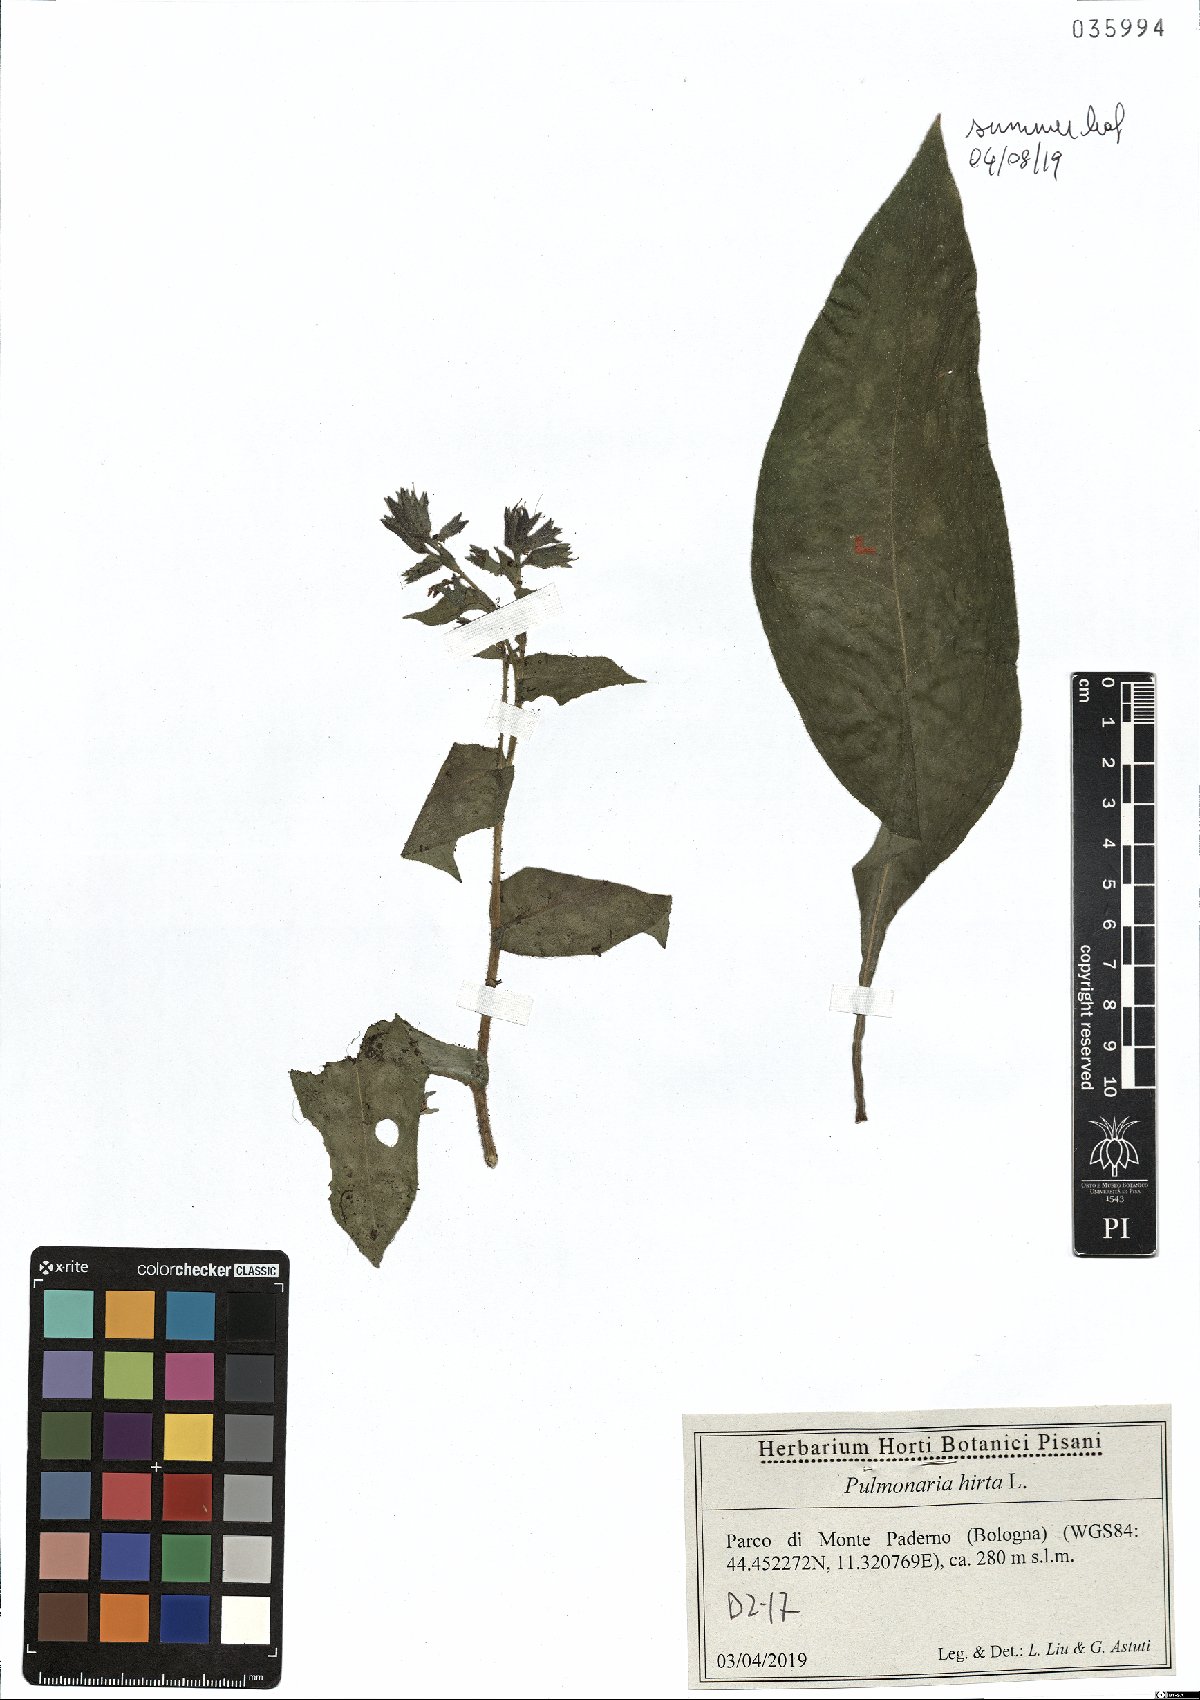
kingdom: Plantae
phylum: Tracheophyta
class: Magnoliopsida
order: Boraginales
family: Boraginaceae
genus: Pulmonaria
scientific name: Pulmonaria hirta
